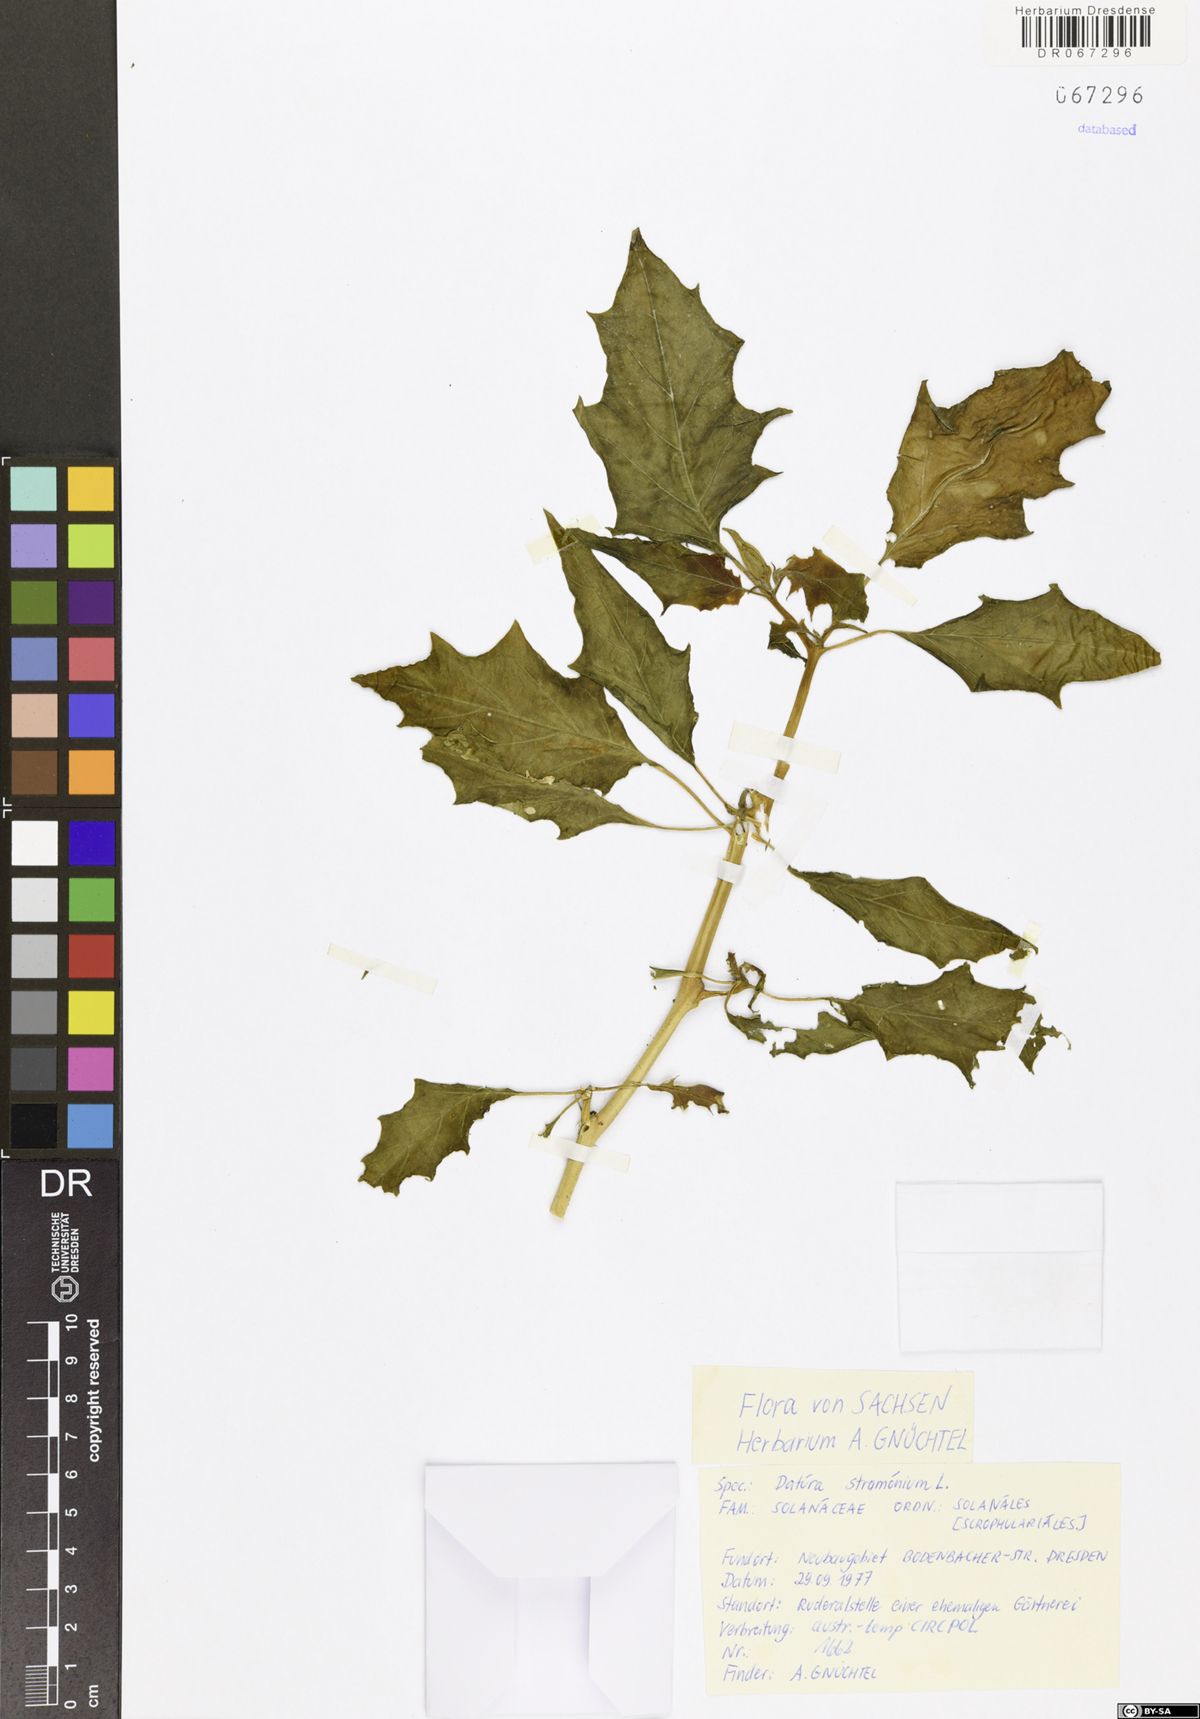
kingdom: Plantae
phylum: Tracheophyta
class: Magnoliopsida
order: Solanales
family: Solanaceae
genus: Datura
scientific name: Datura stramonium
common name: Thorn-apple
